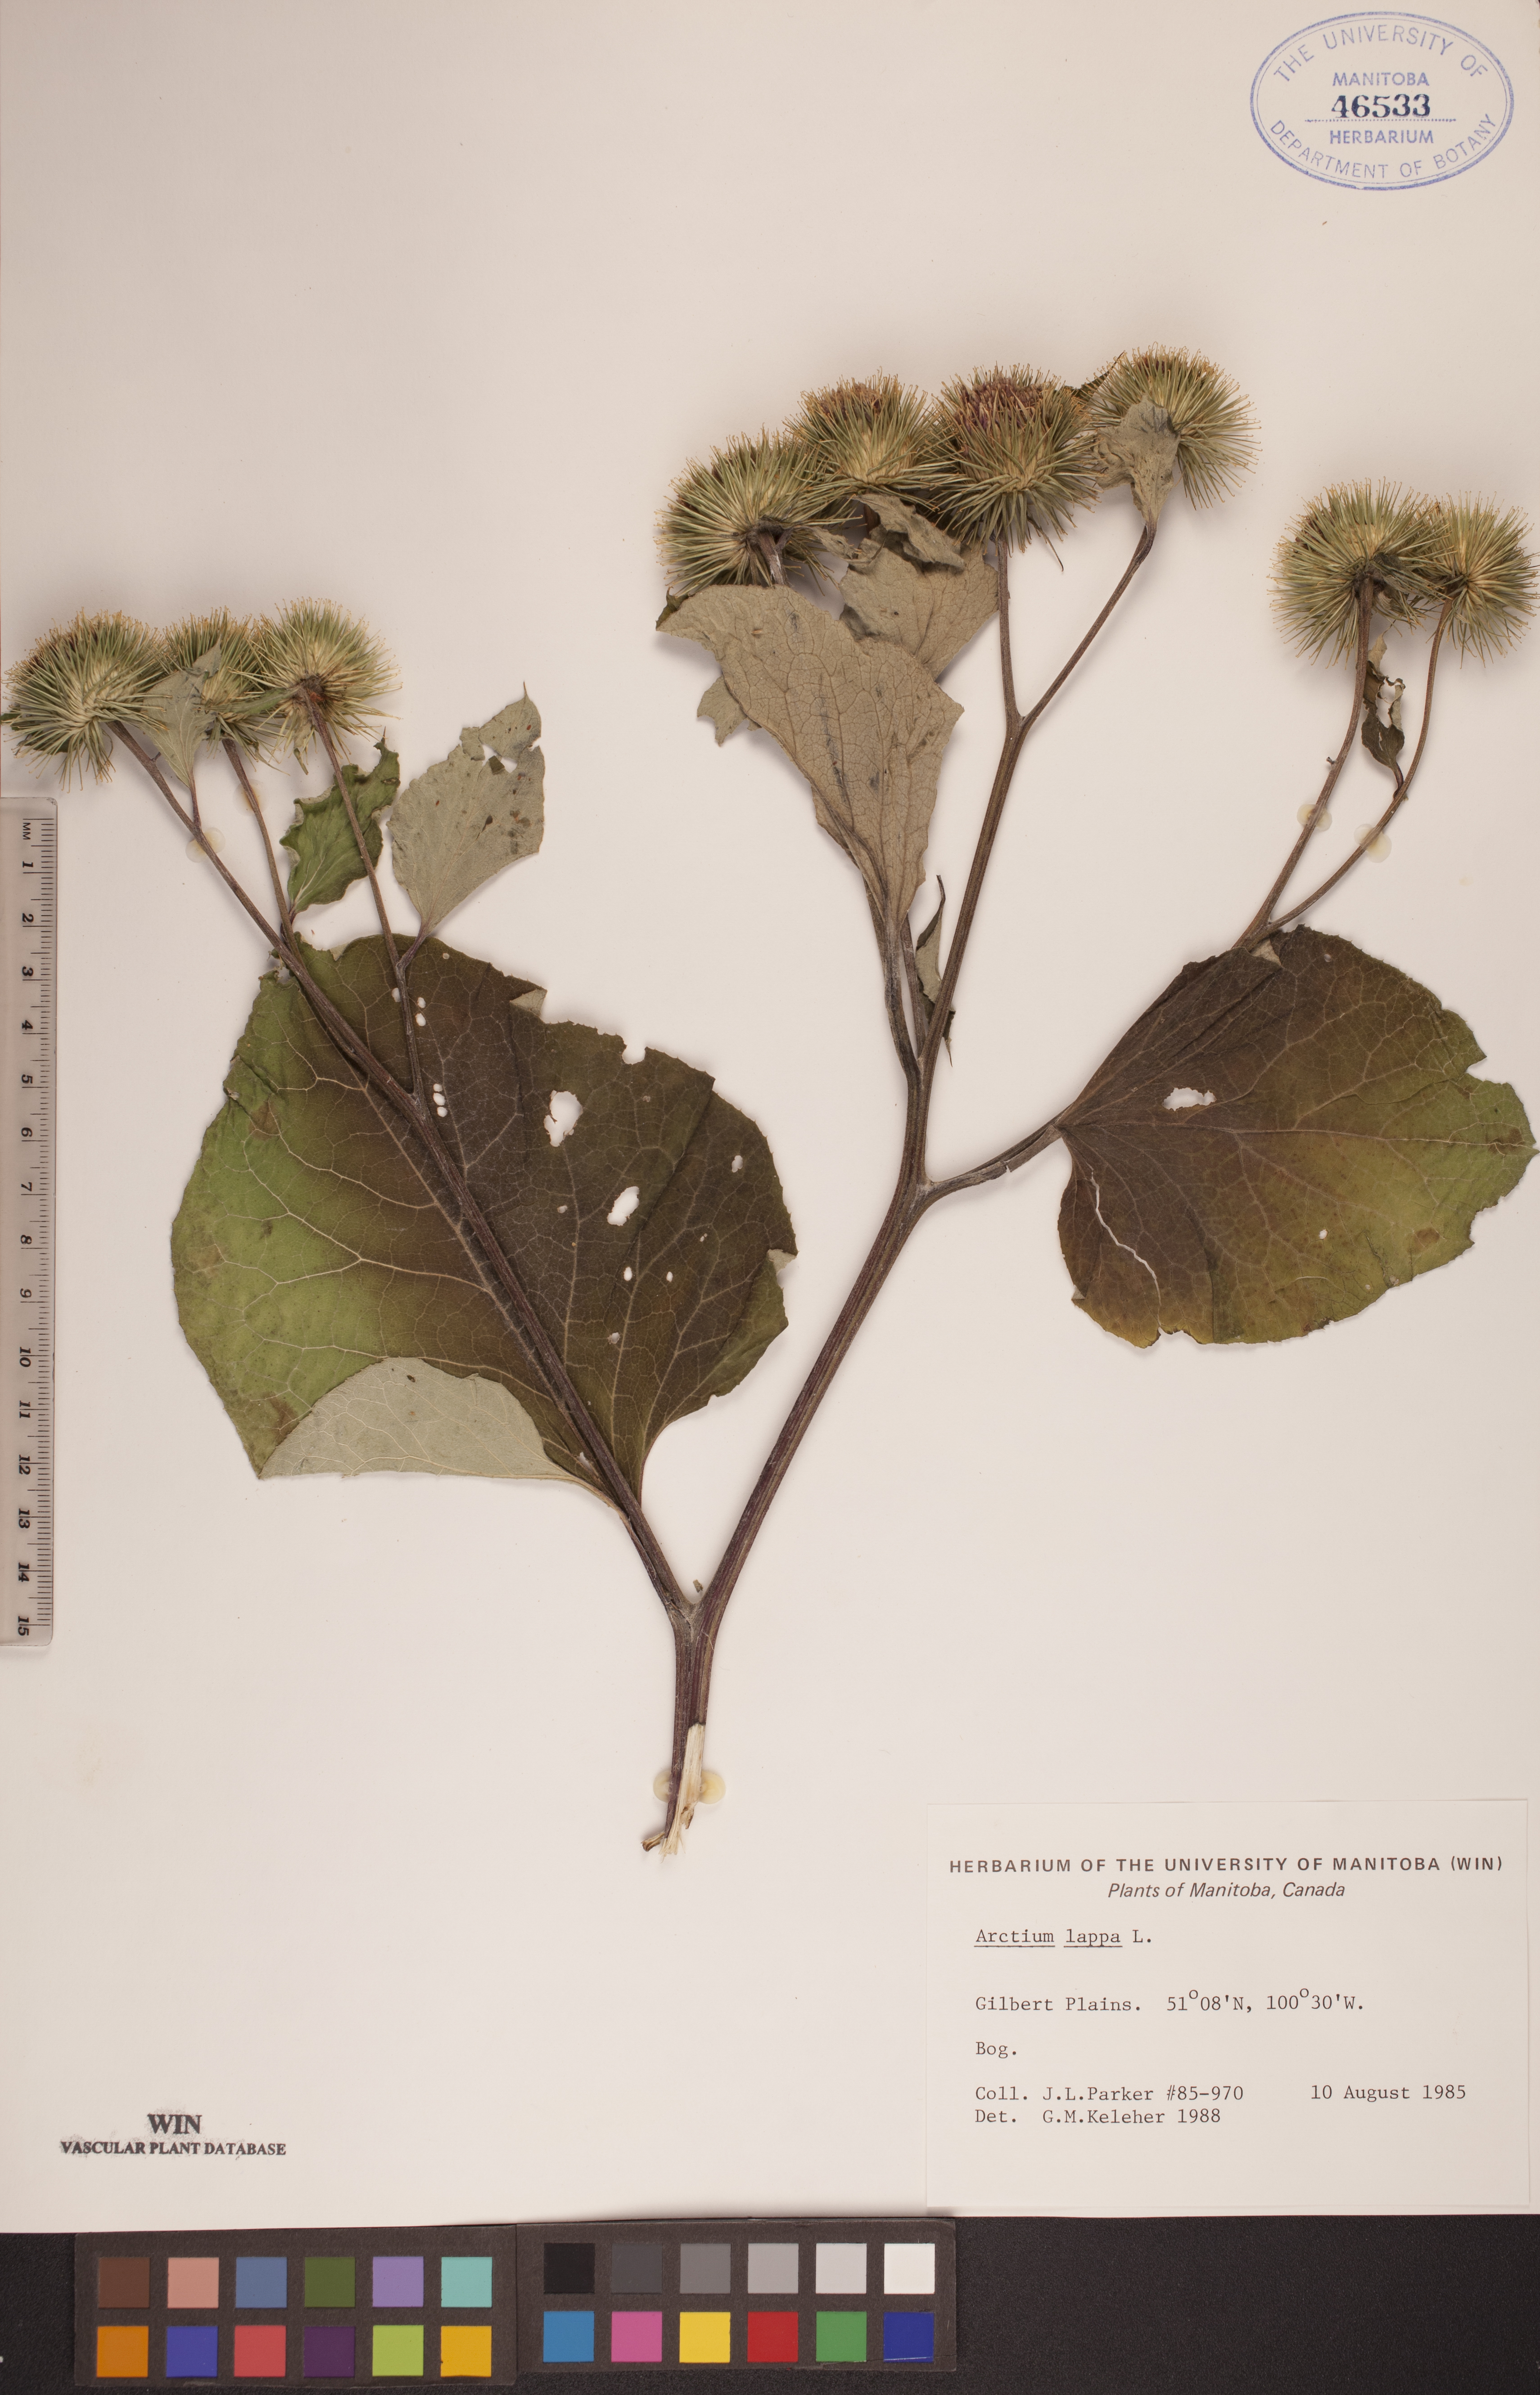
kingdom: Plantae
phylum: Tracheophyta
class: Magnoliopsida
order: Asterales
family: Asteraceae
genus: Arctium
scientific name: Arctium lappa
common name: Greater burdock
